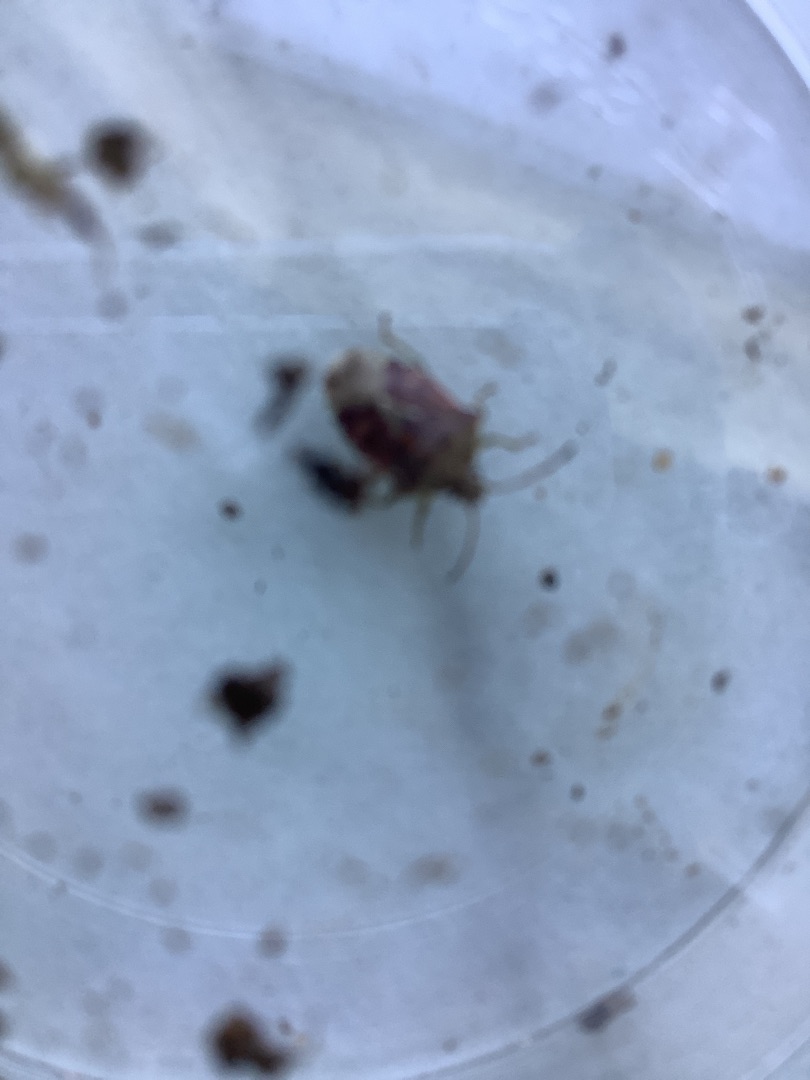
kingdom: Animalia
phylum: Arthropoda
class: Insecta
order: Hemiptera
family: Pentatomidae
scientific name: Pentatomidae
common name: Egentlige bredtæger
